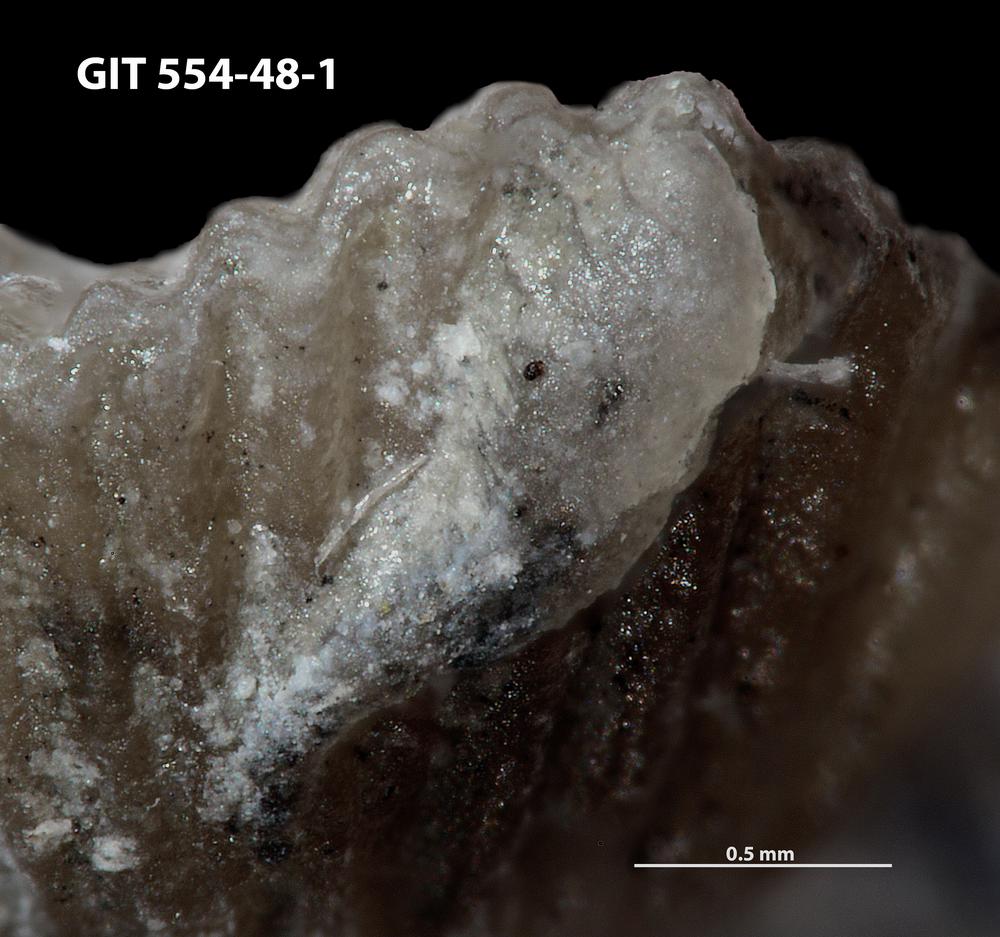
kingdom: Animalia
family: Cornulitidae
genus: Conchicolites
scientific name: Conchicolites
